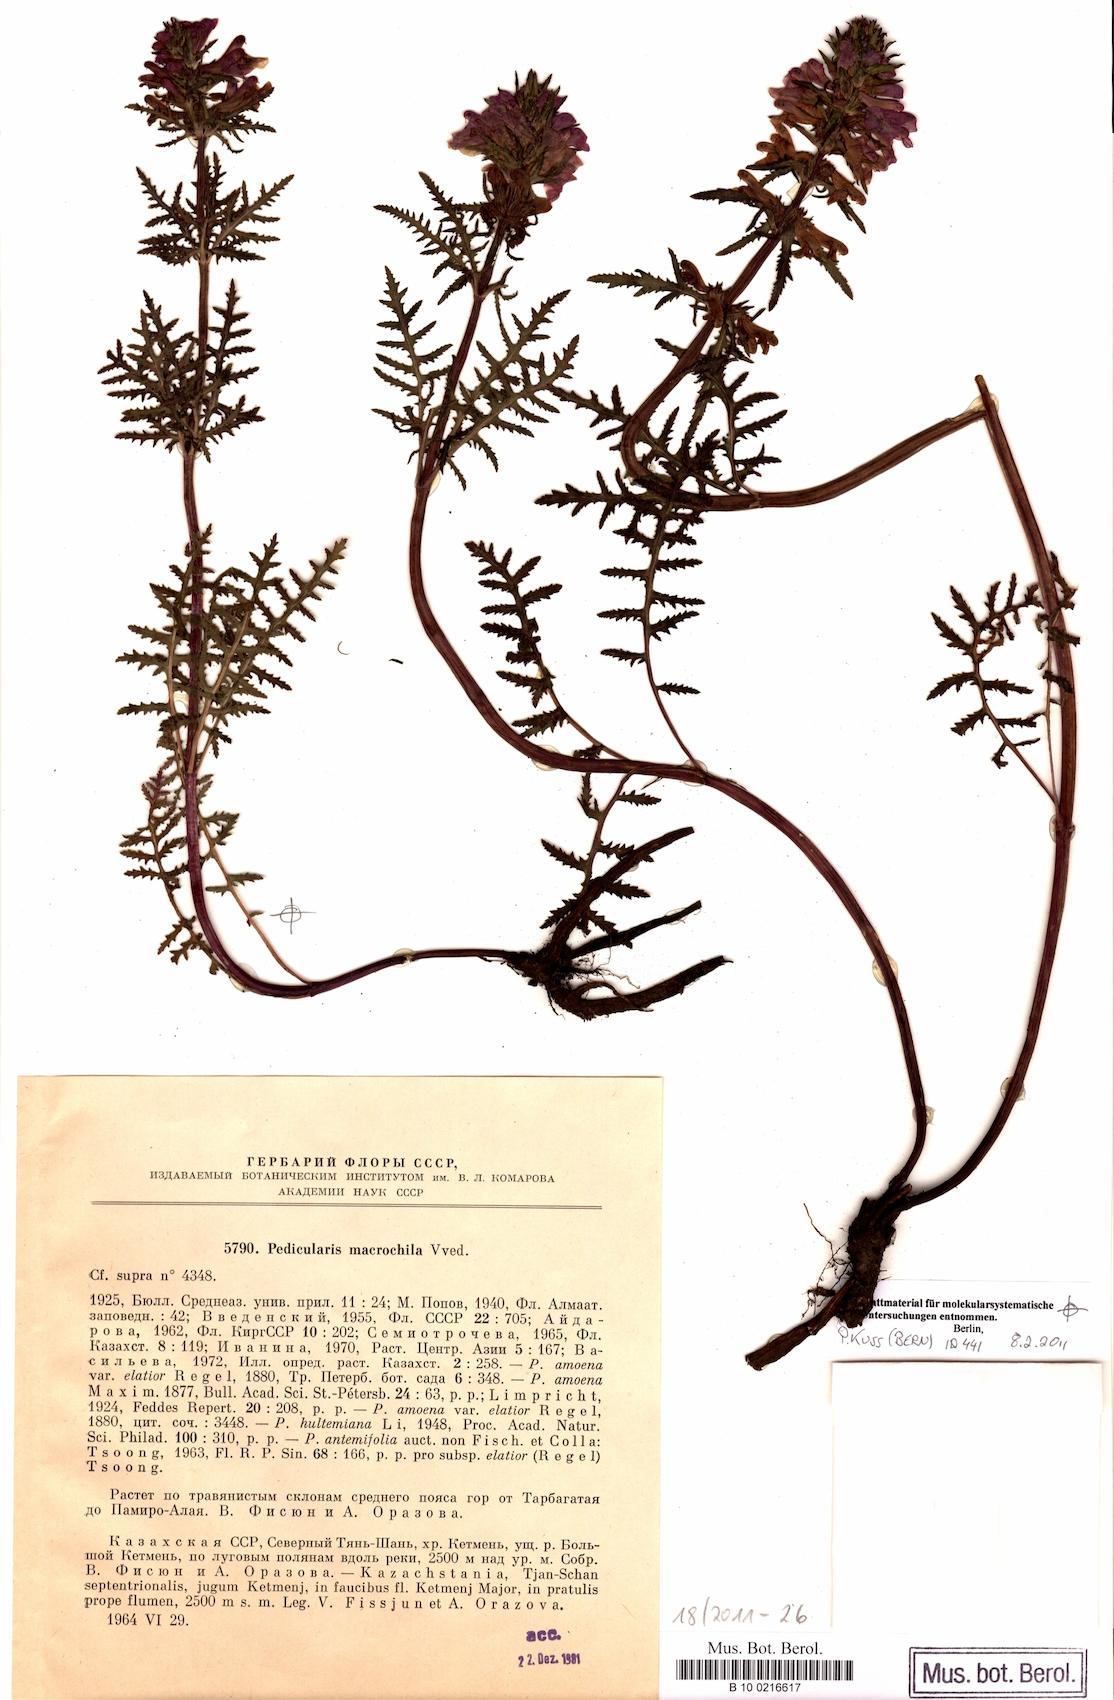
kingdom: Plantae
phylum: Tracheophyta
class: Magnoliopsida
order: Lamiales
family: Orobanchaceae
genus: Pedicularis
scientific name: Pedicularis macrochila
